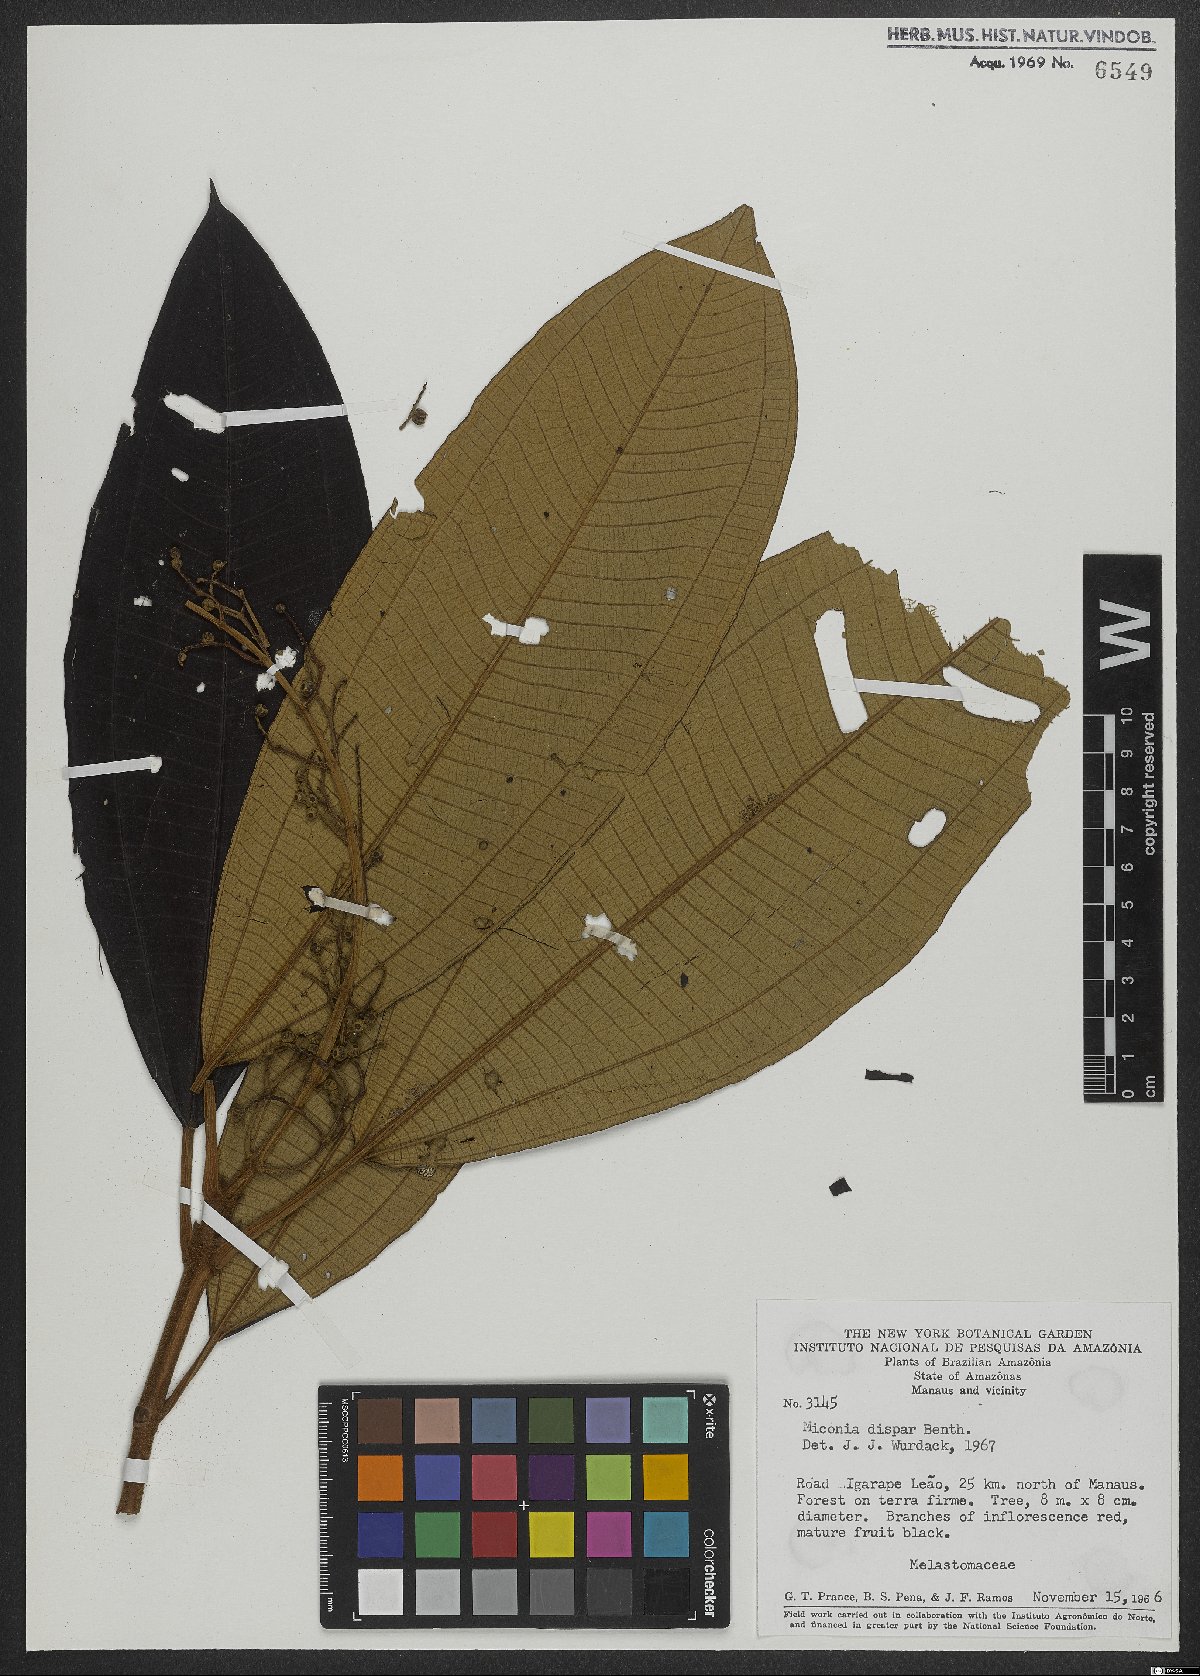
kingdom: Plantae
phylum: Tracheophyta
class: Magnoliopsida
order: Myrtales
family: Melastomataceae
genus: Miconia
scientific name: Miconia dispar
